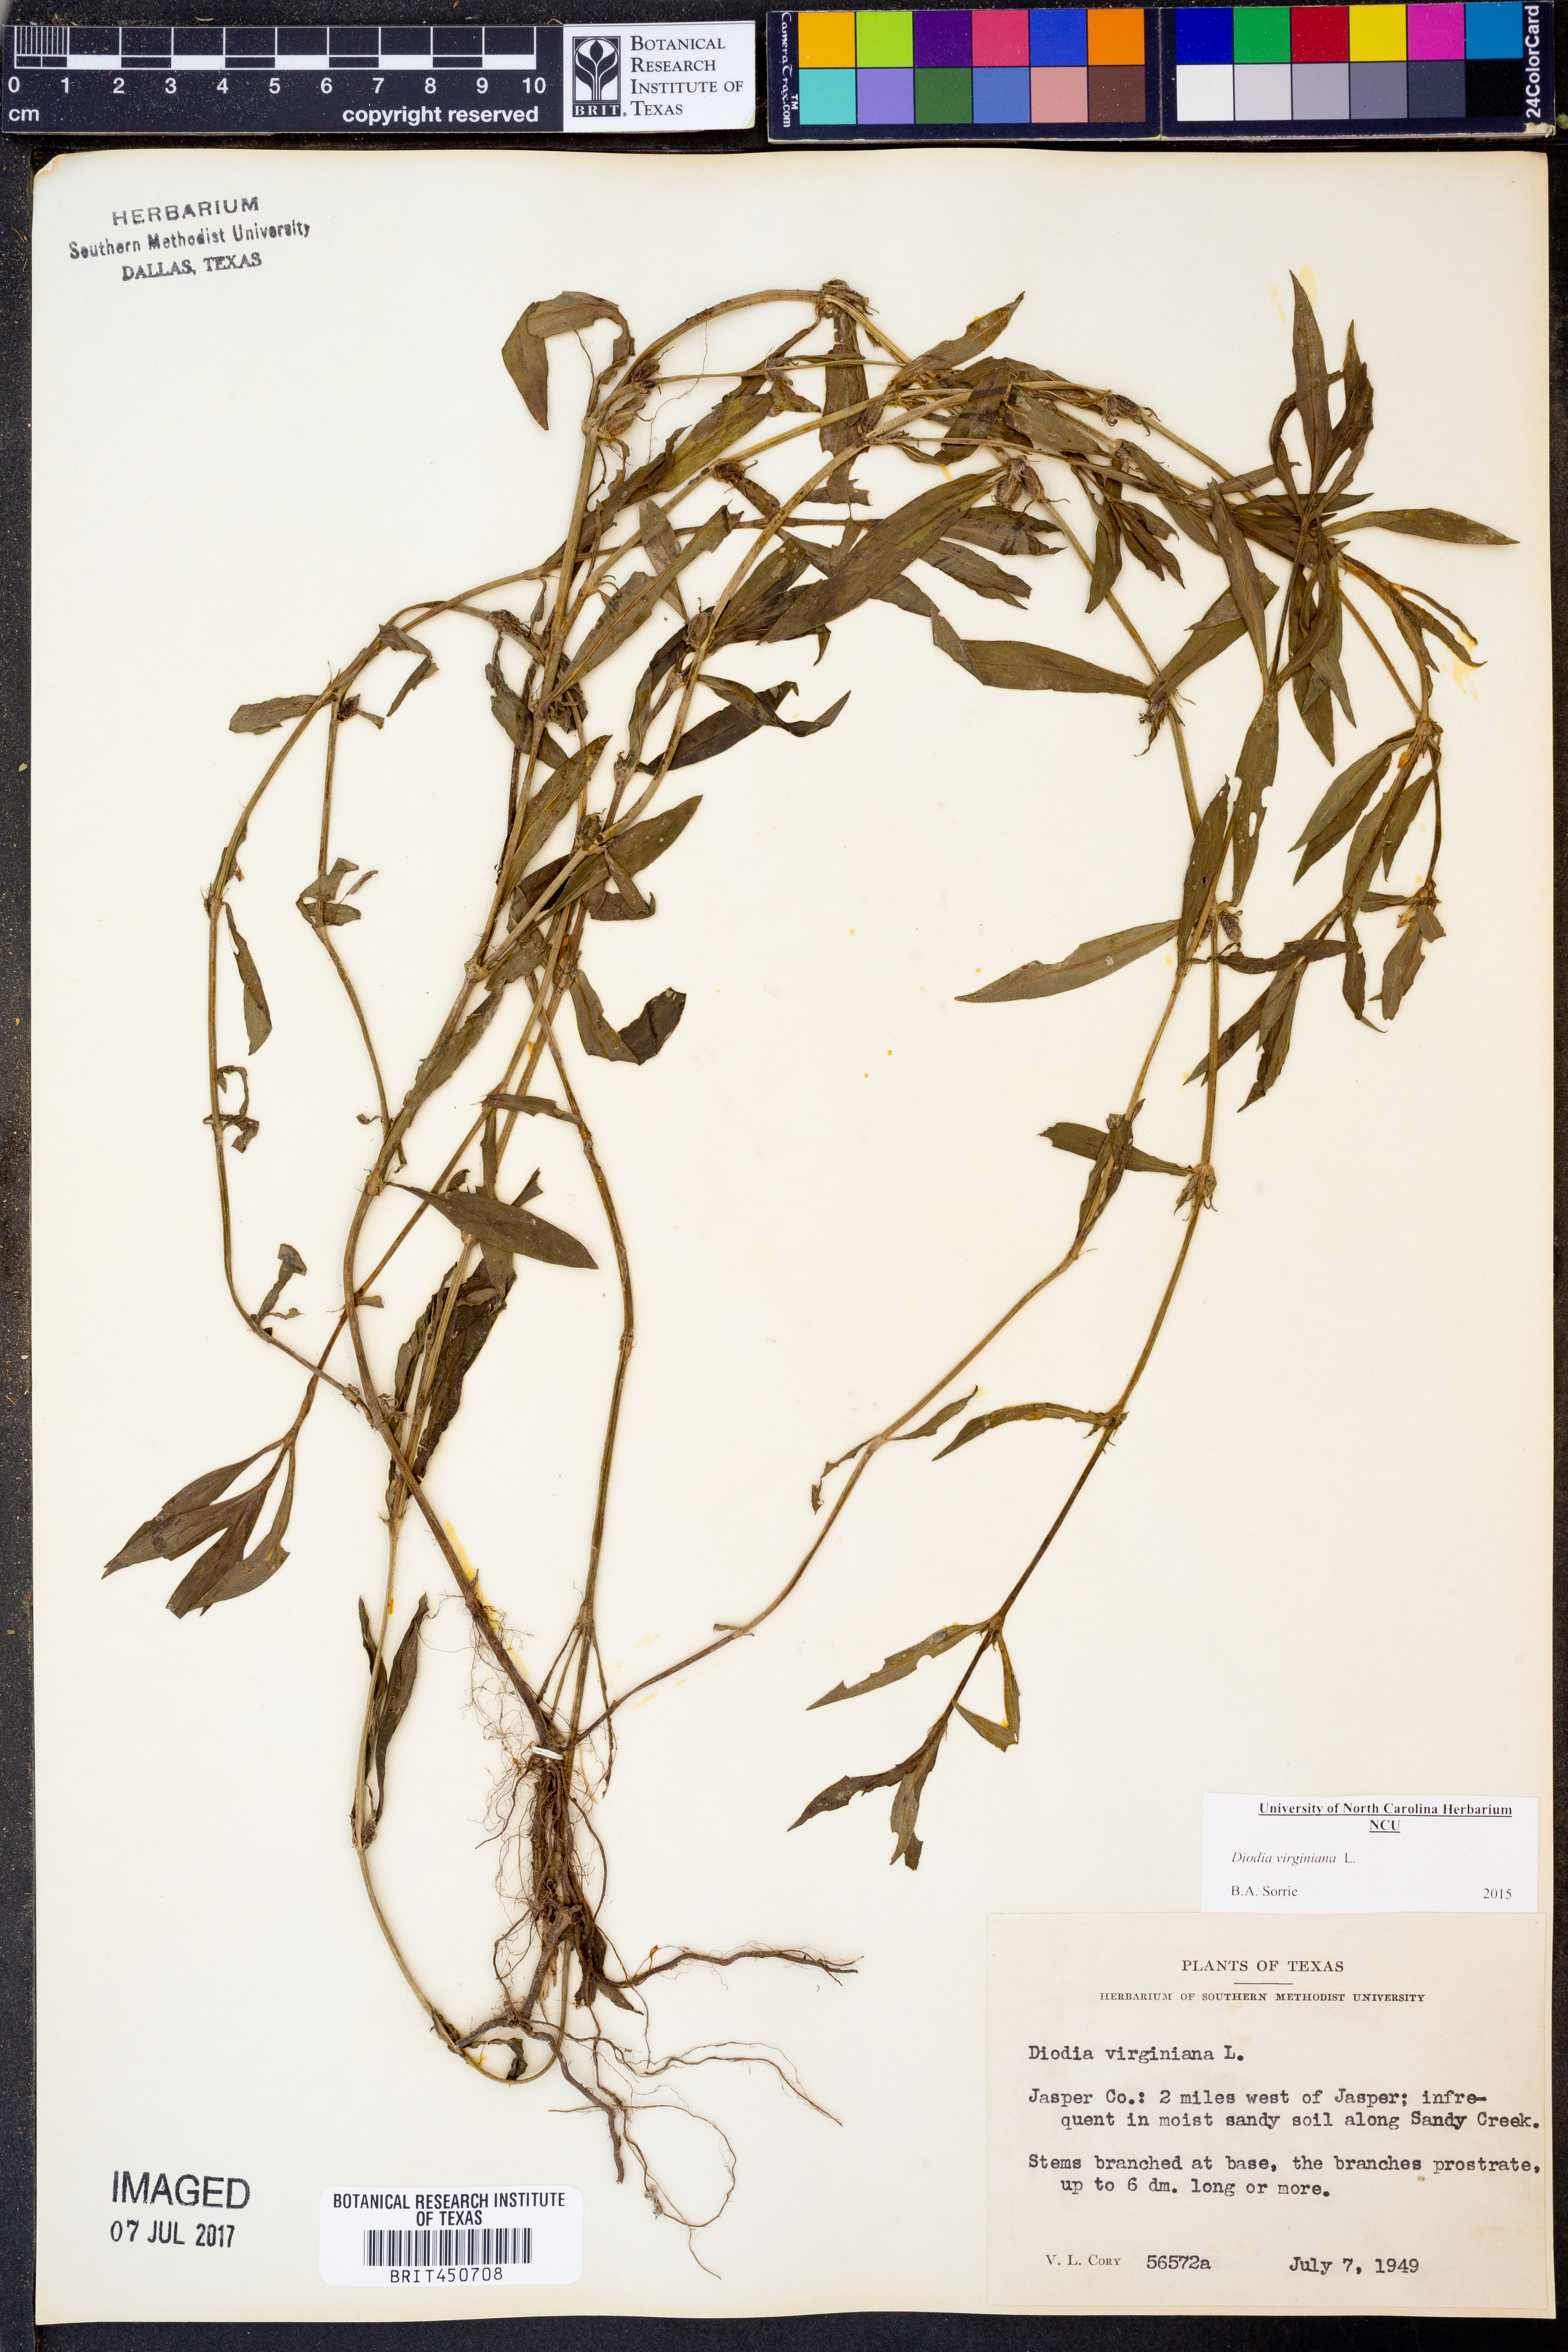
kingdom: Plantae
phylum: Tracheophyta
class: Magnoliopsida
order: Gentianales
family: Rubiaceae
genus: Diodia
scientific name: Diodia virginiana
